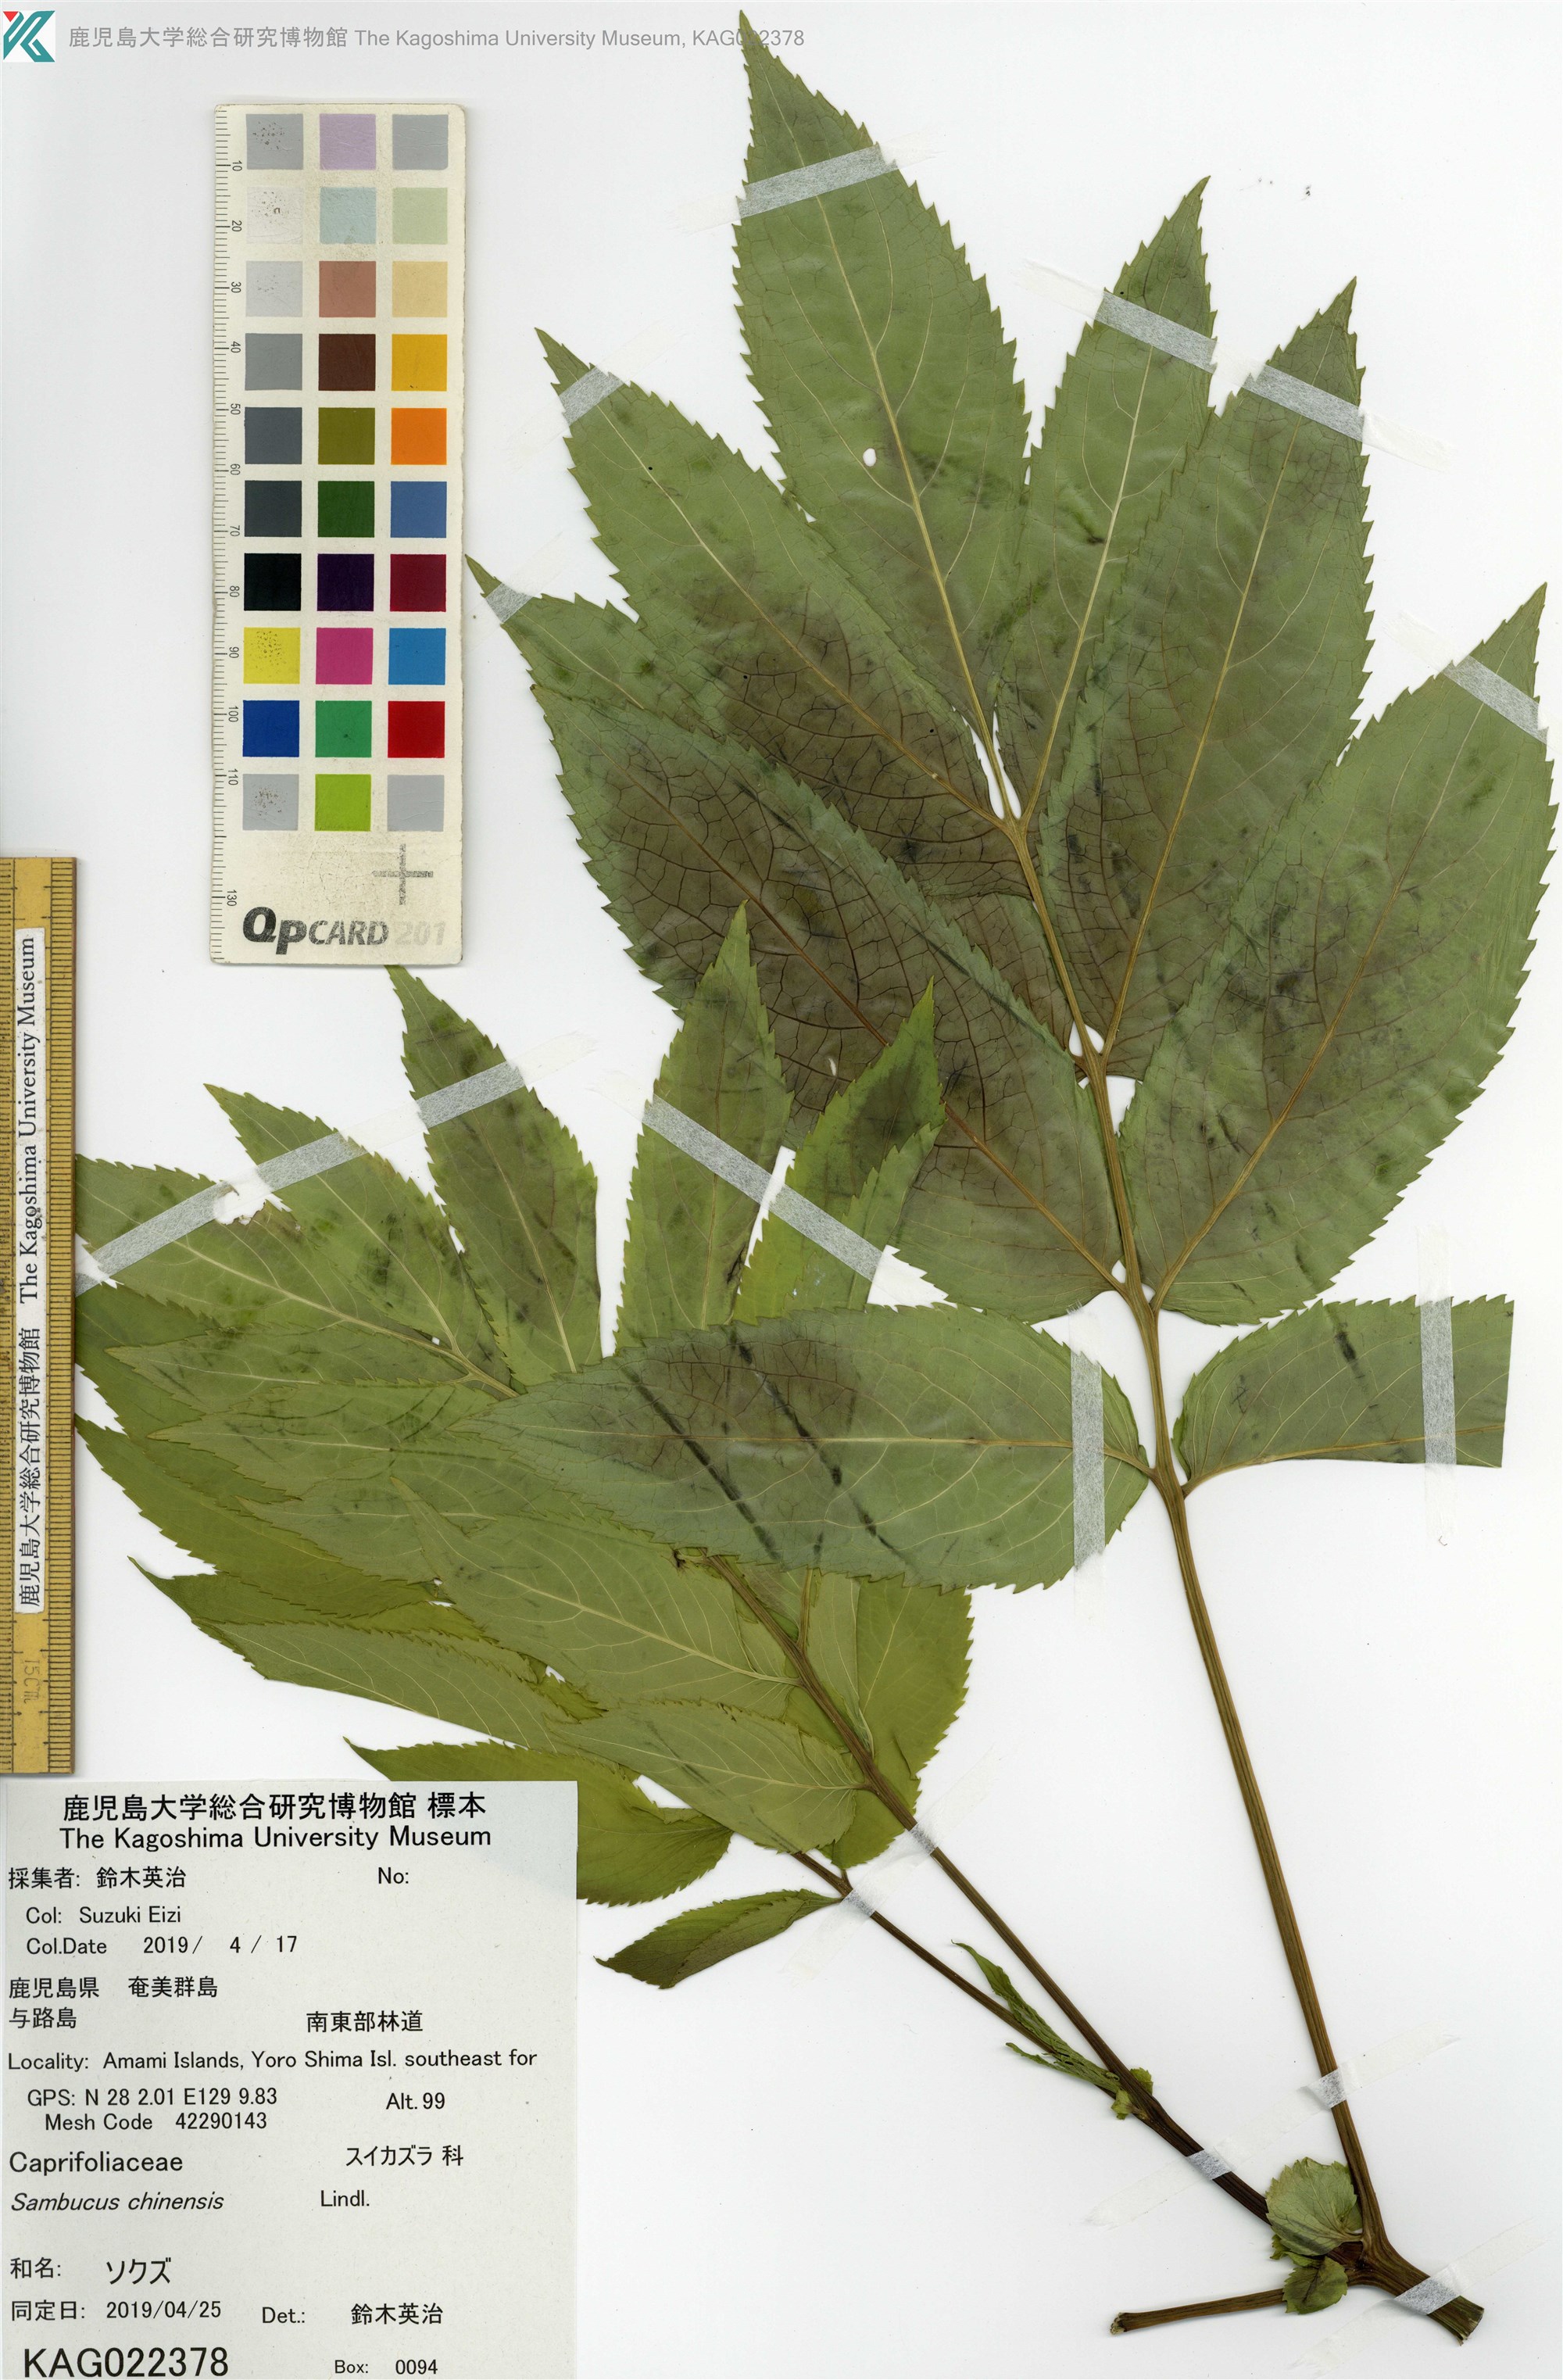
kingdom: Plantae
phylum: Tracheophyta
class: Magnoliopsida
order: Dipsacales
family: Viburnaceae
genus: Sambucus
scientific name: Sambucus javanica
